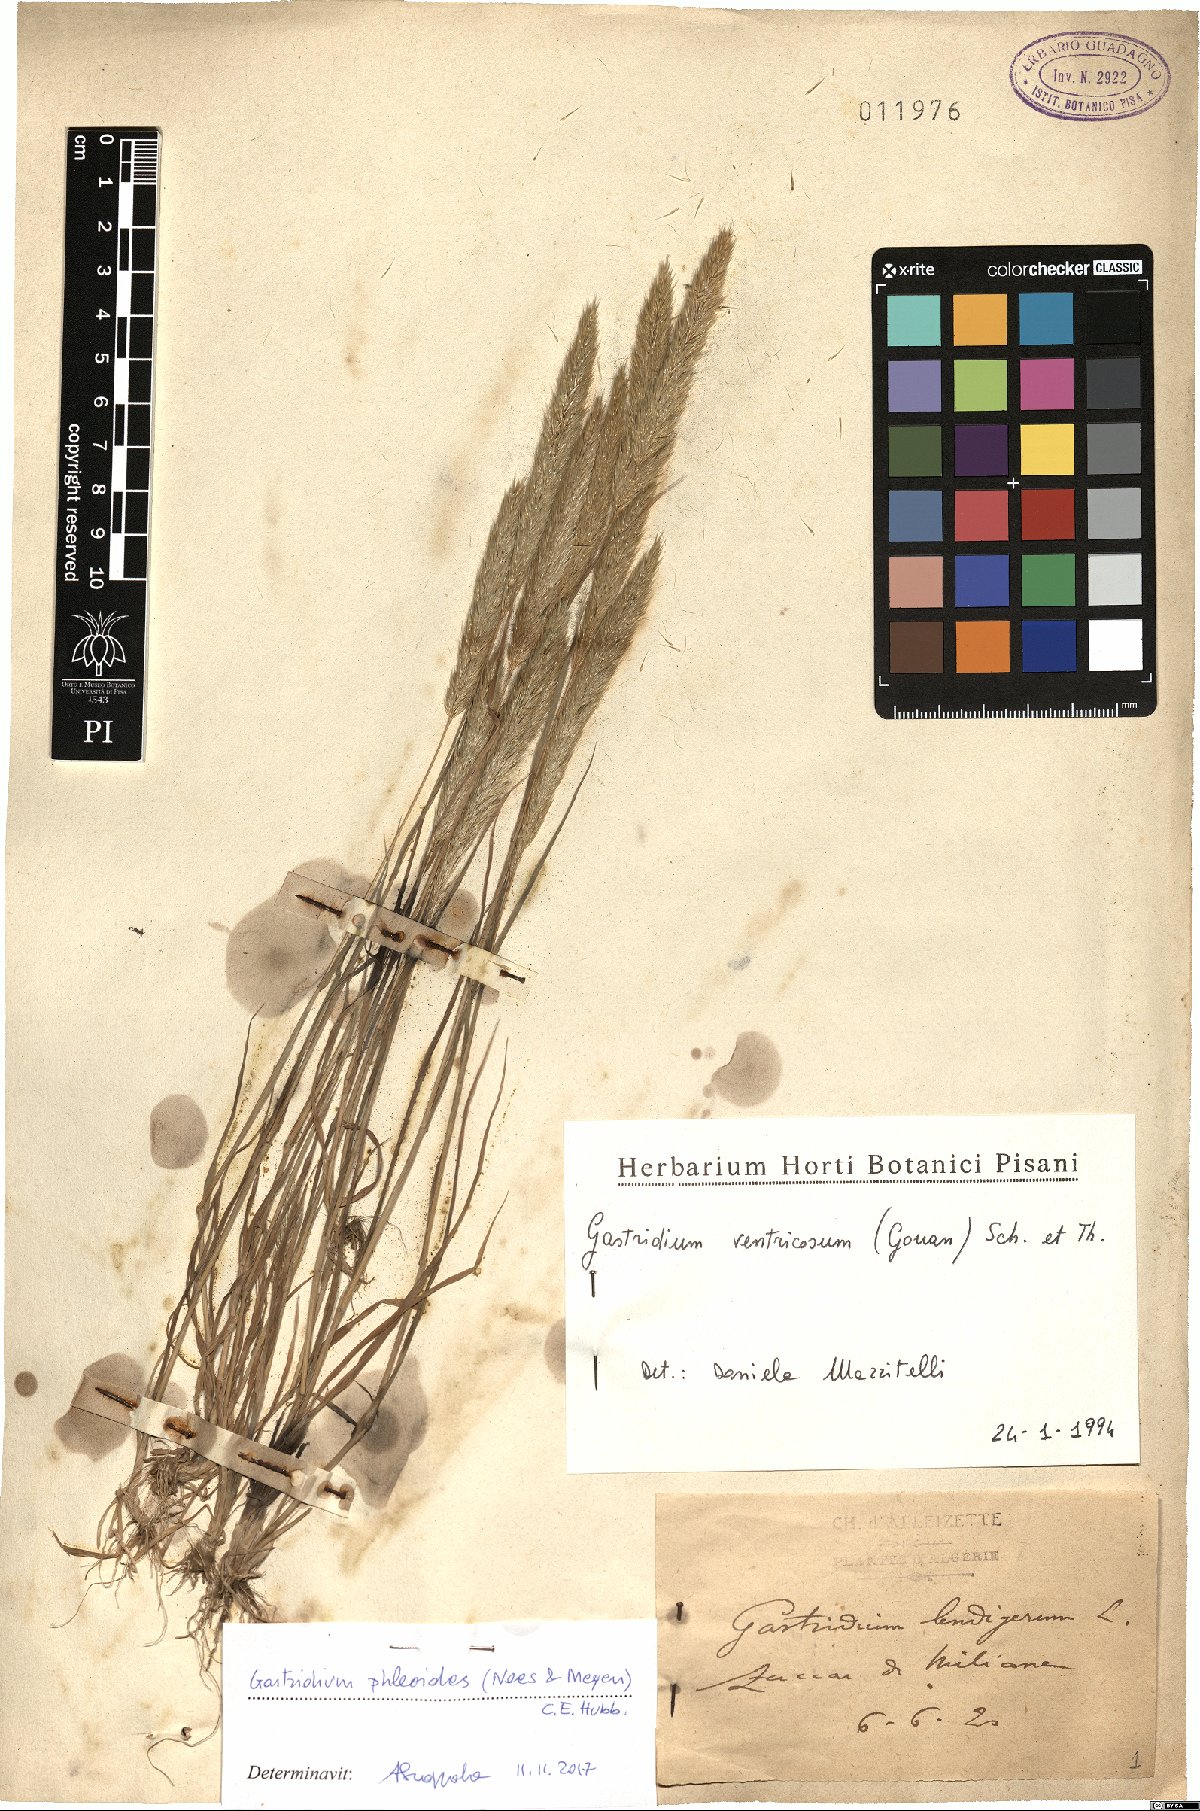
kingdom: Plantae
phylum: Tracheophyta
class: Liliopsida
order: Poales
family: Poaceae
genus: Gastridium
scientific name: Gastridium phleoides
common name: Nit grass
